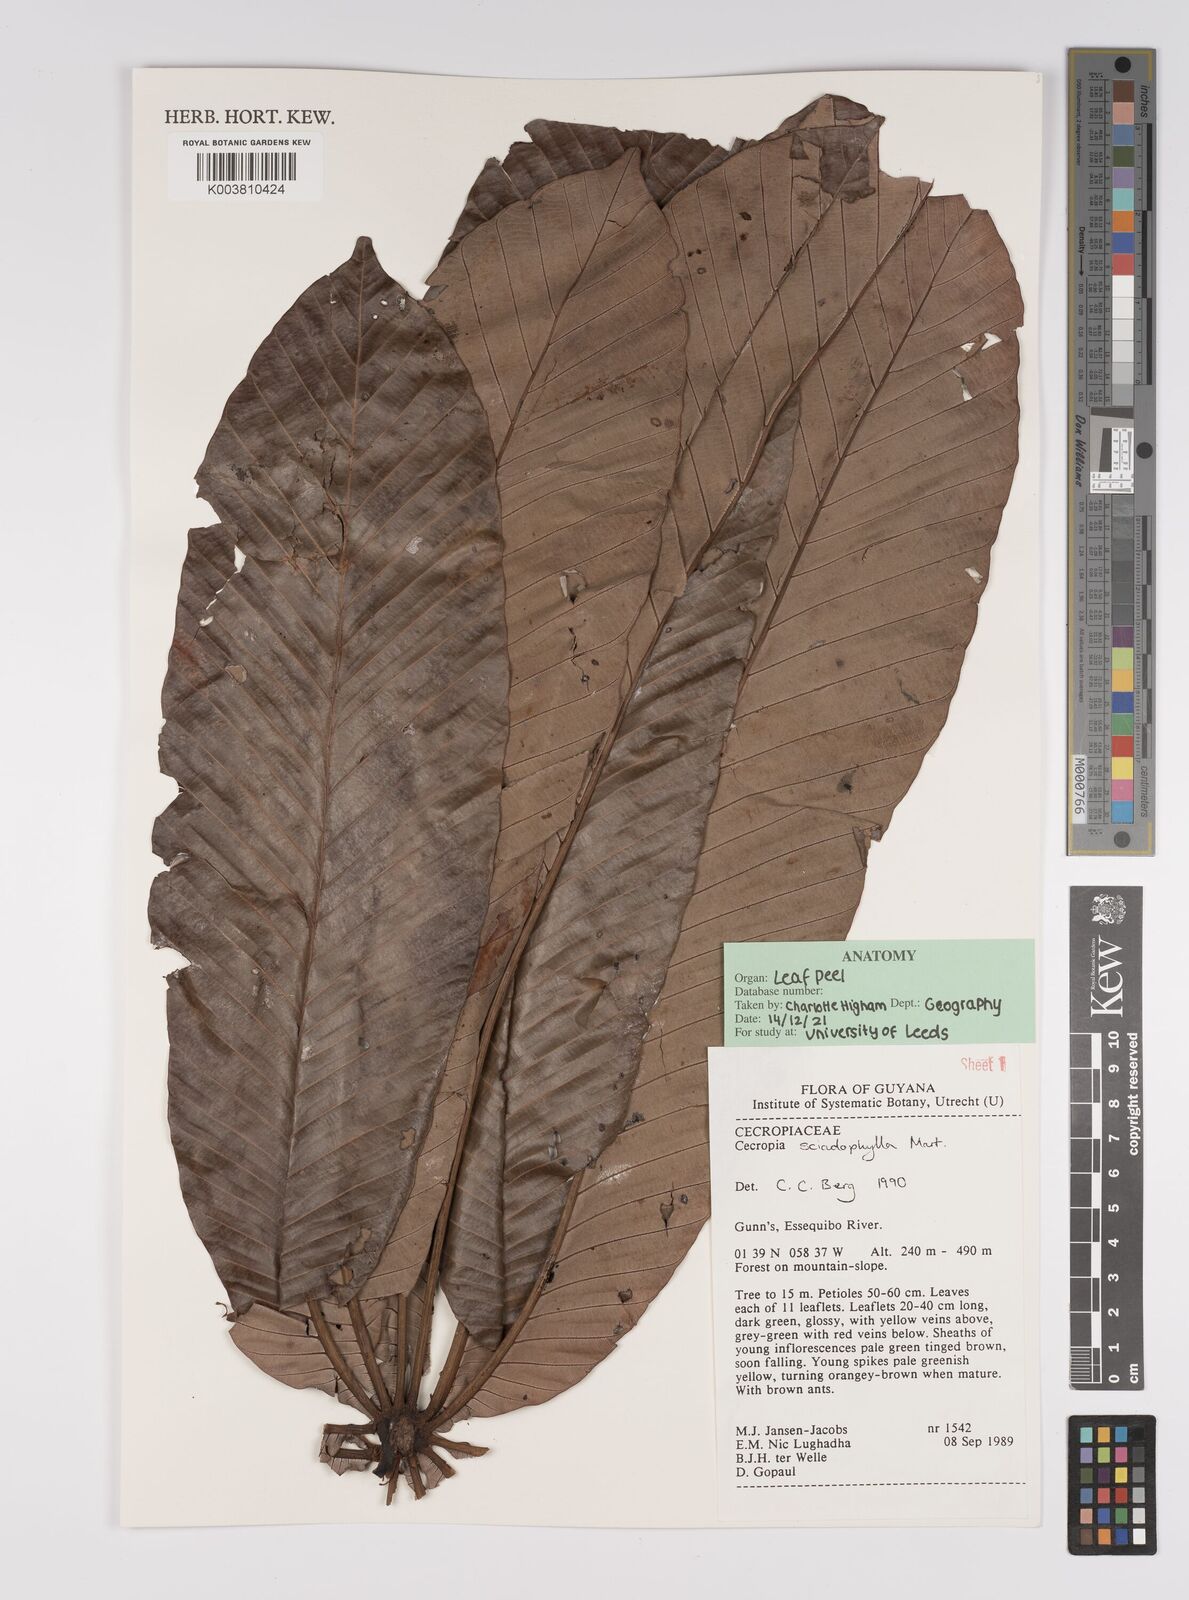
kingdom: Plantae
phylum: Tracheophyta
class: Magnoliopsida
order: Rosales
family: Urticaceae
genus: Cecropia
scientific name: Cecropia sciadophylla
